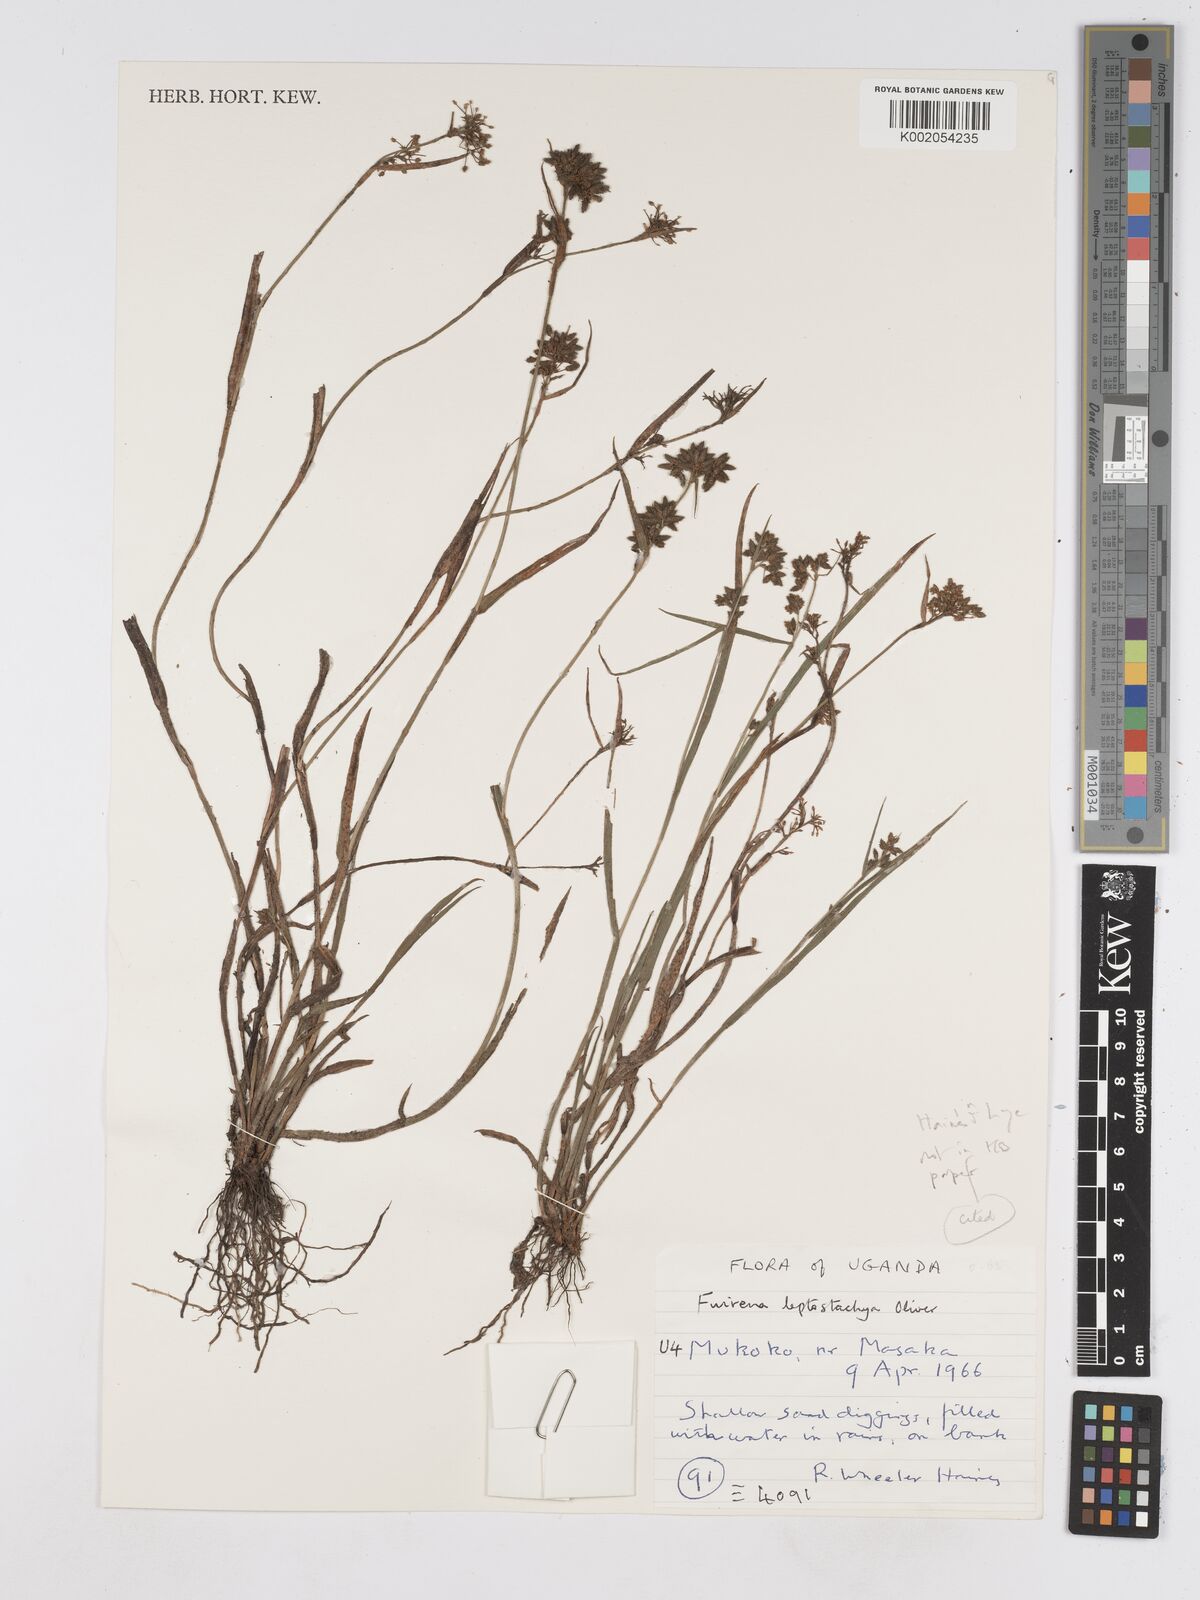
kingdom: Plantae
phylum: Tracheophyta
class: Liliopsida
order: Poales
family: Cyperaceae
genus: Fuirena
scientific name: Fuirena leptostachya
